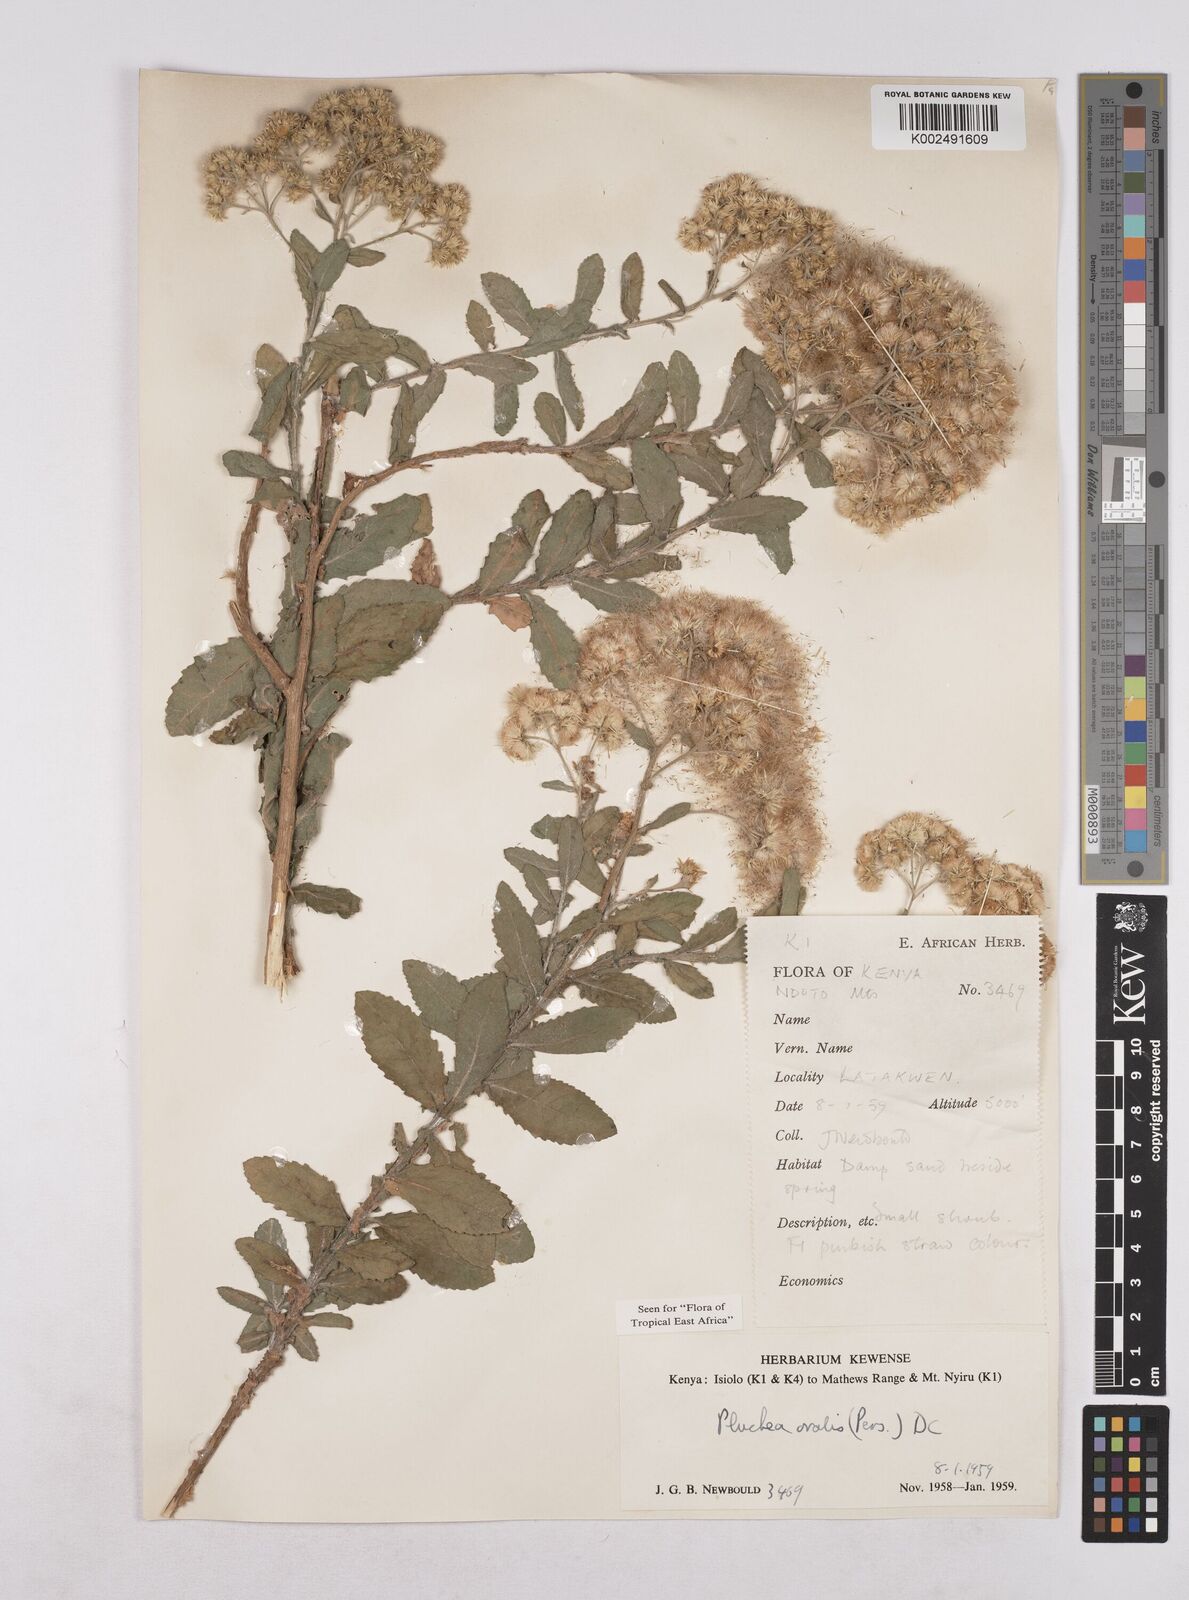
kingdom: Plantae
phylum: Tracheophyta
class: Magnoliopsida
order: Asterales
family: Asteraceae
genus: Pluchea
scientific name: Pluchea ovalis
